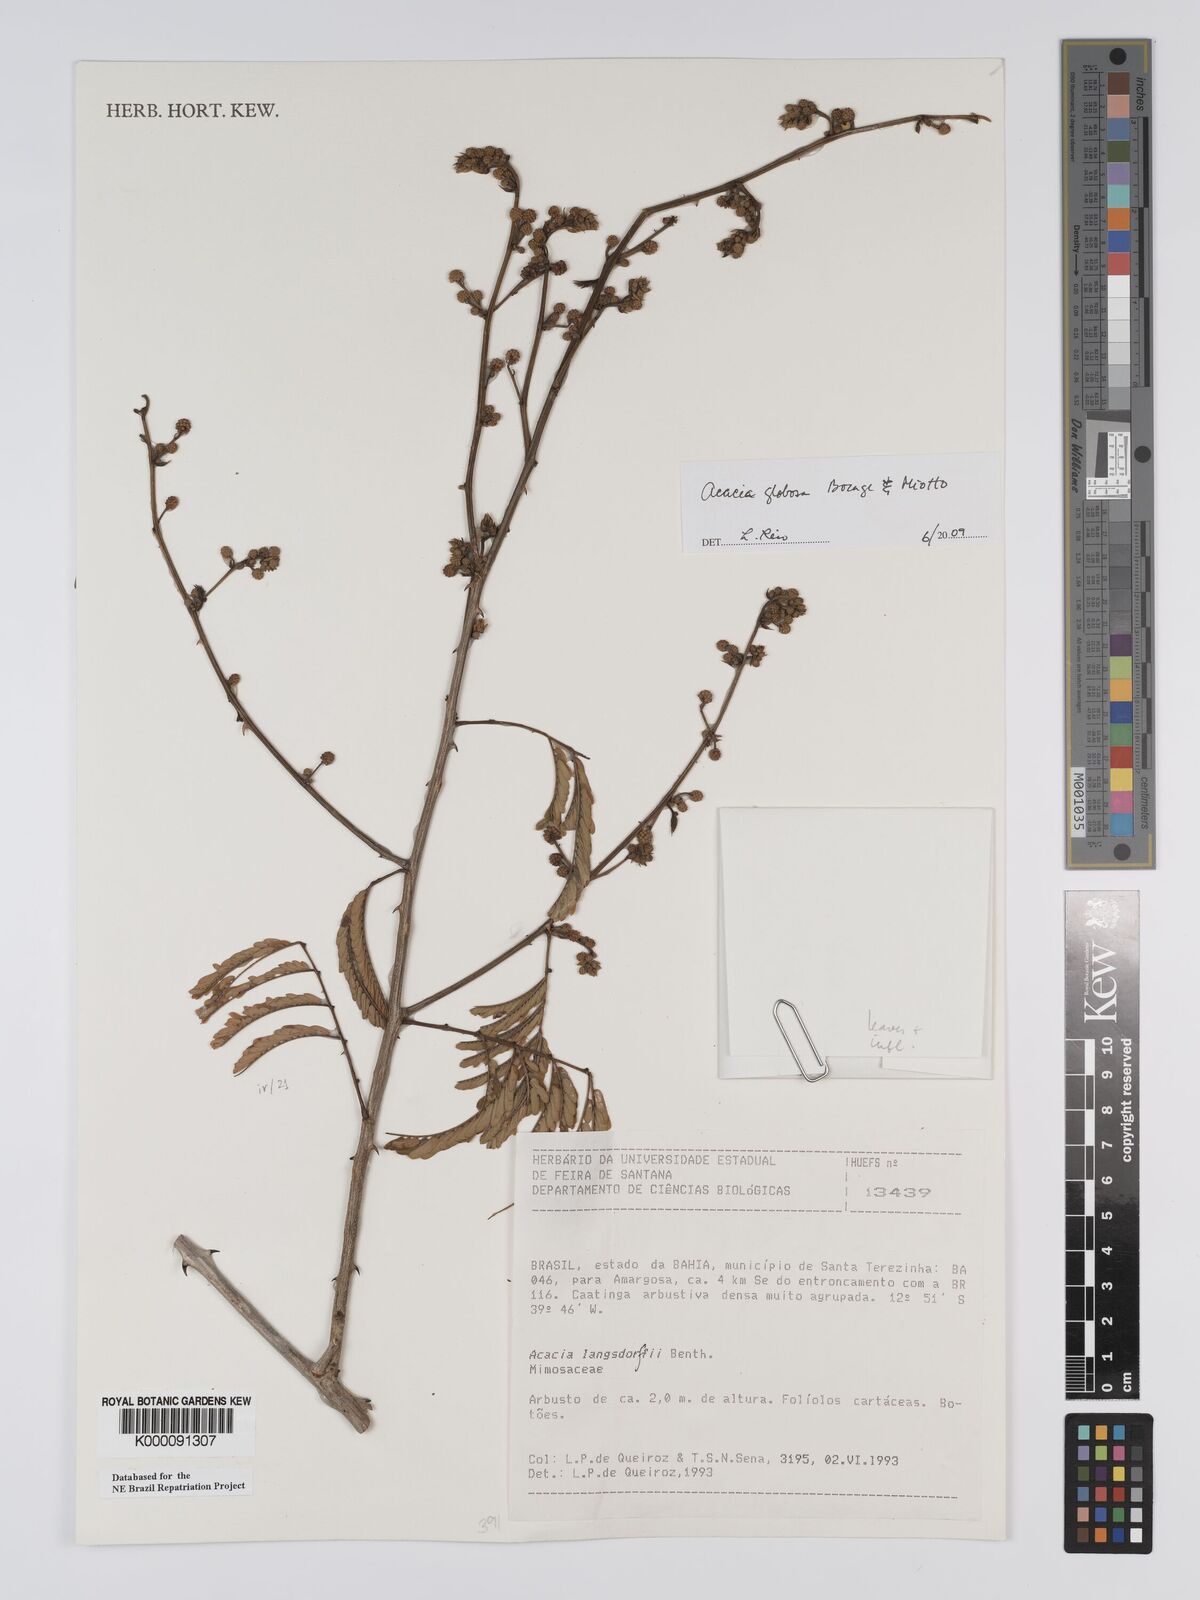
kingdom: Plantae
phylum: Tracheophyta
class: Magnoliopsida
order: Fabales
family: Fabaceae
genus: Senegalia
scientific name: Senegalia globosa
